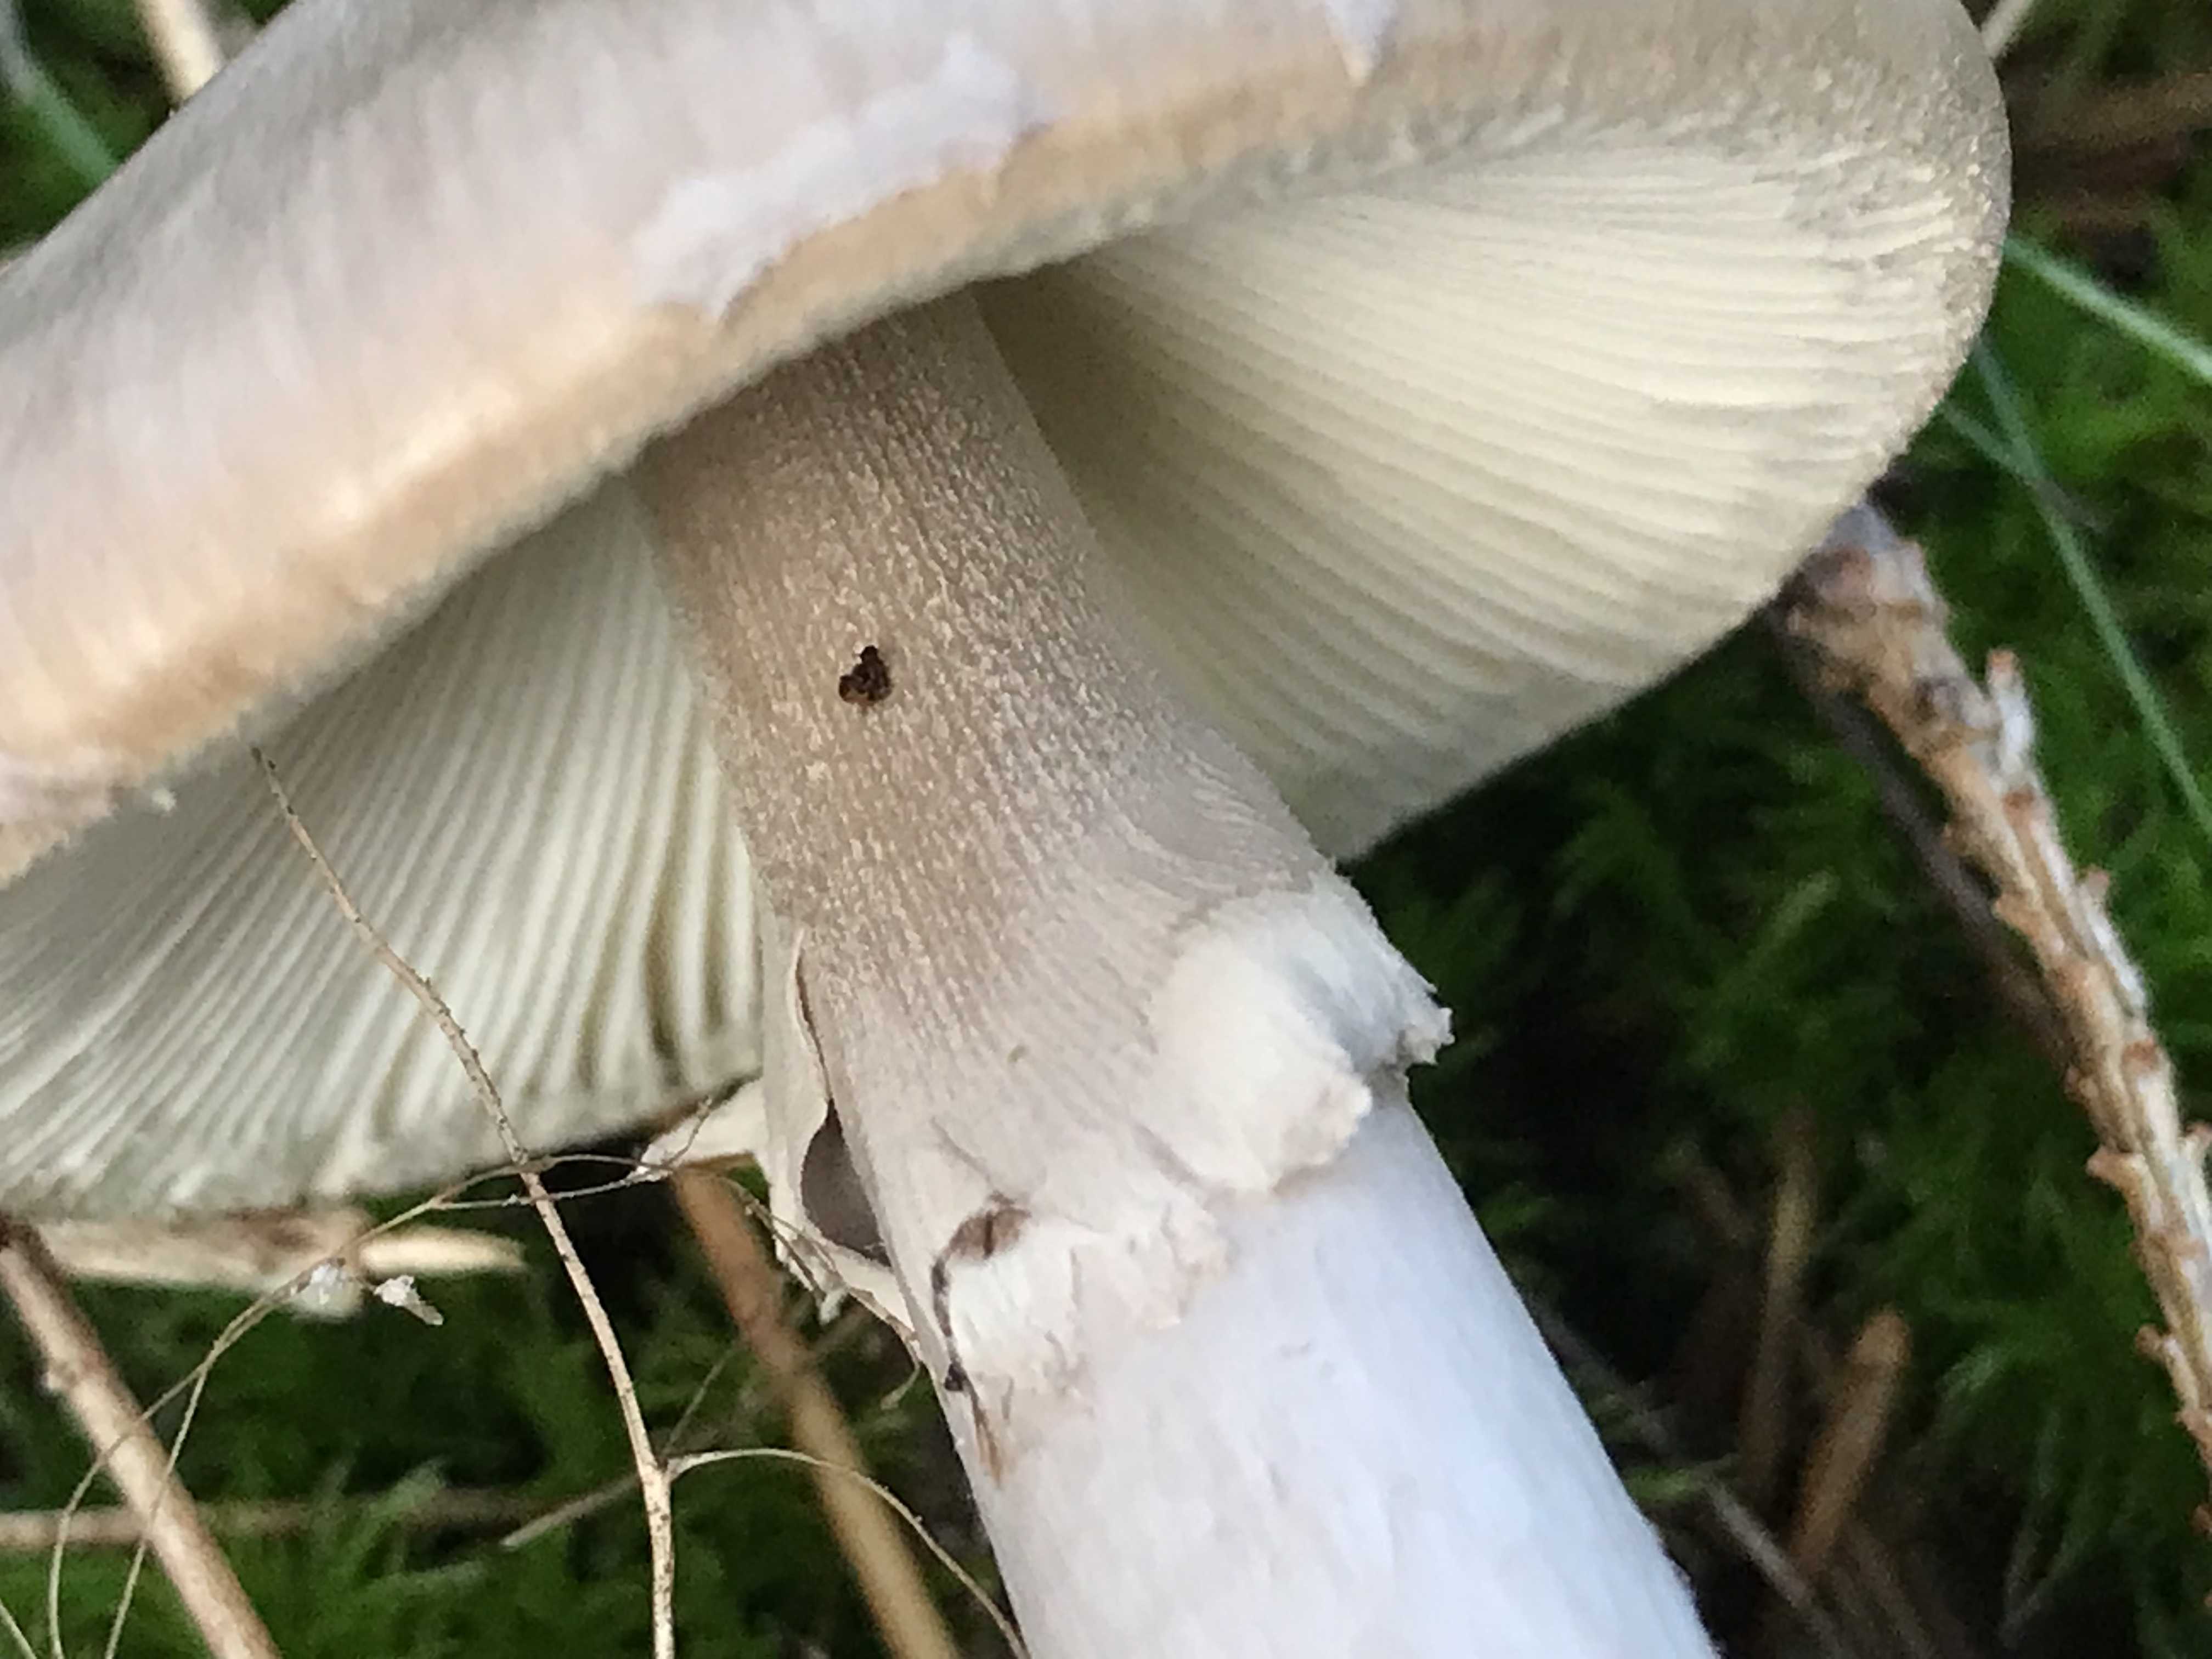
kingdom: Fungi
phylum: Basidiomycota
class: Agaricomycetes
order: Agaricales
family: Amanitaceae
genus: Amanita
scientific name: Amanita porphyria
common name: porfyr-fluesvamp
